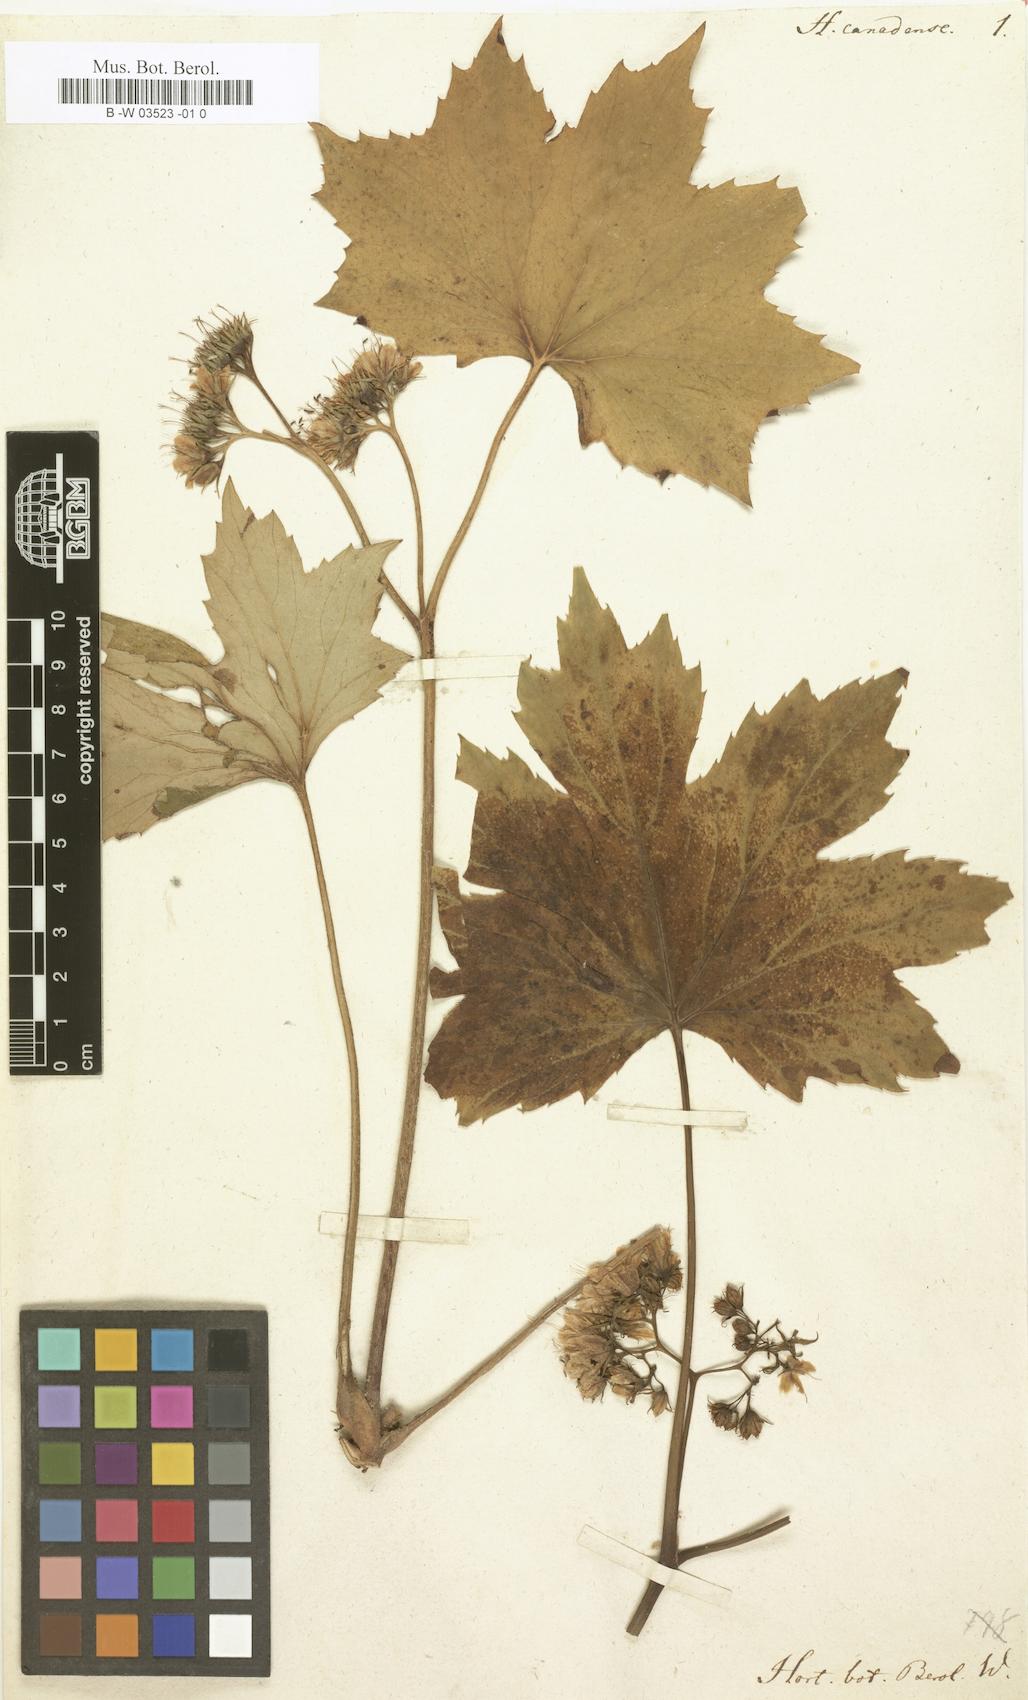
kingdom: Plantae
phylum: Tracheophyta
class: Magnoliopsida
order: Boraginales
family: Hydrophyllaceae
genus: Hydrophyllum
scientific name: Hydrophyllum canadense
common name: Canada waterleaf
